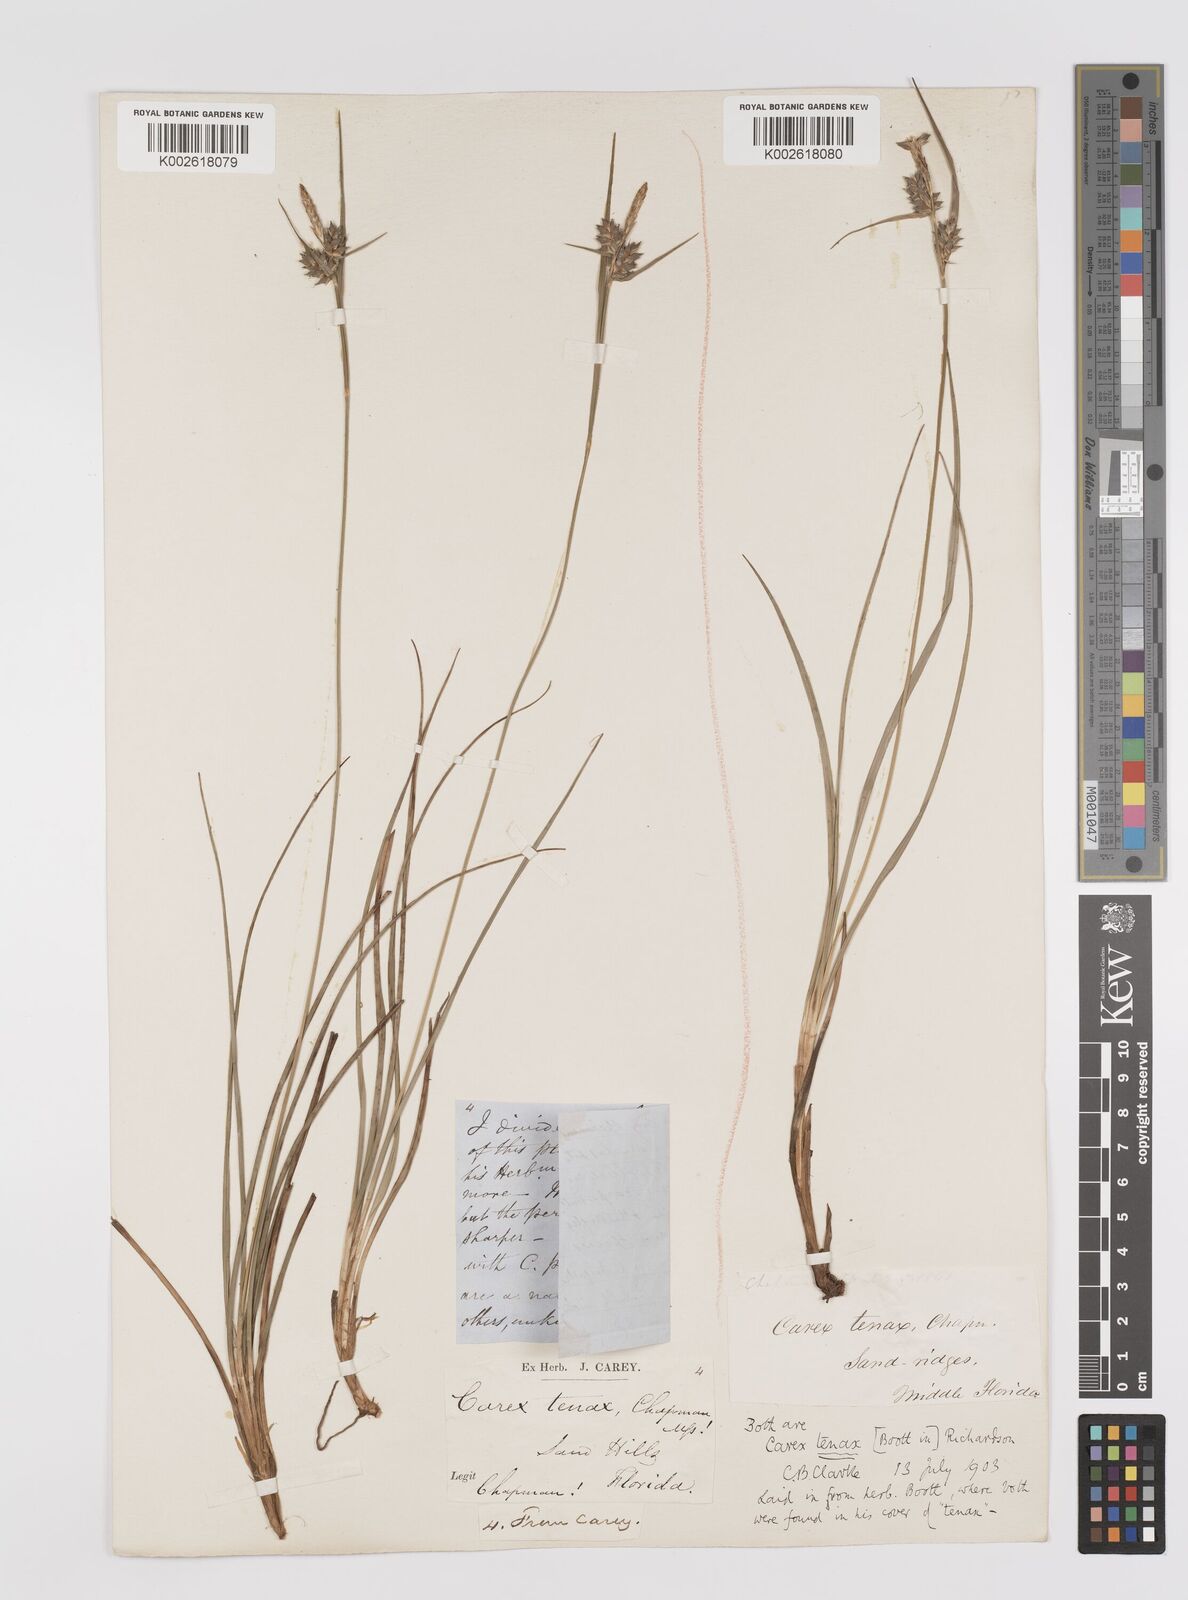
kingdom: Plantae
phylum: Tracheophyta
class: Liliopsida
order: Poales
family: Cyperaceae
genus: Carex
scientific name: Carex tenax
